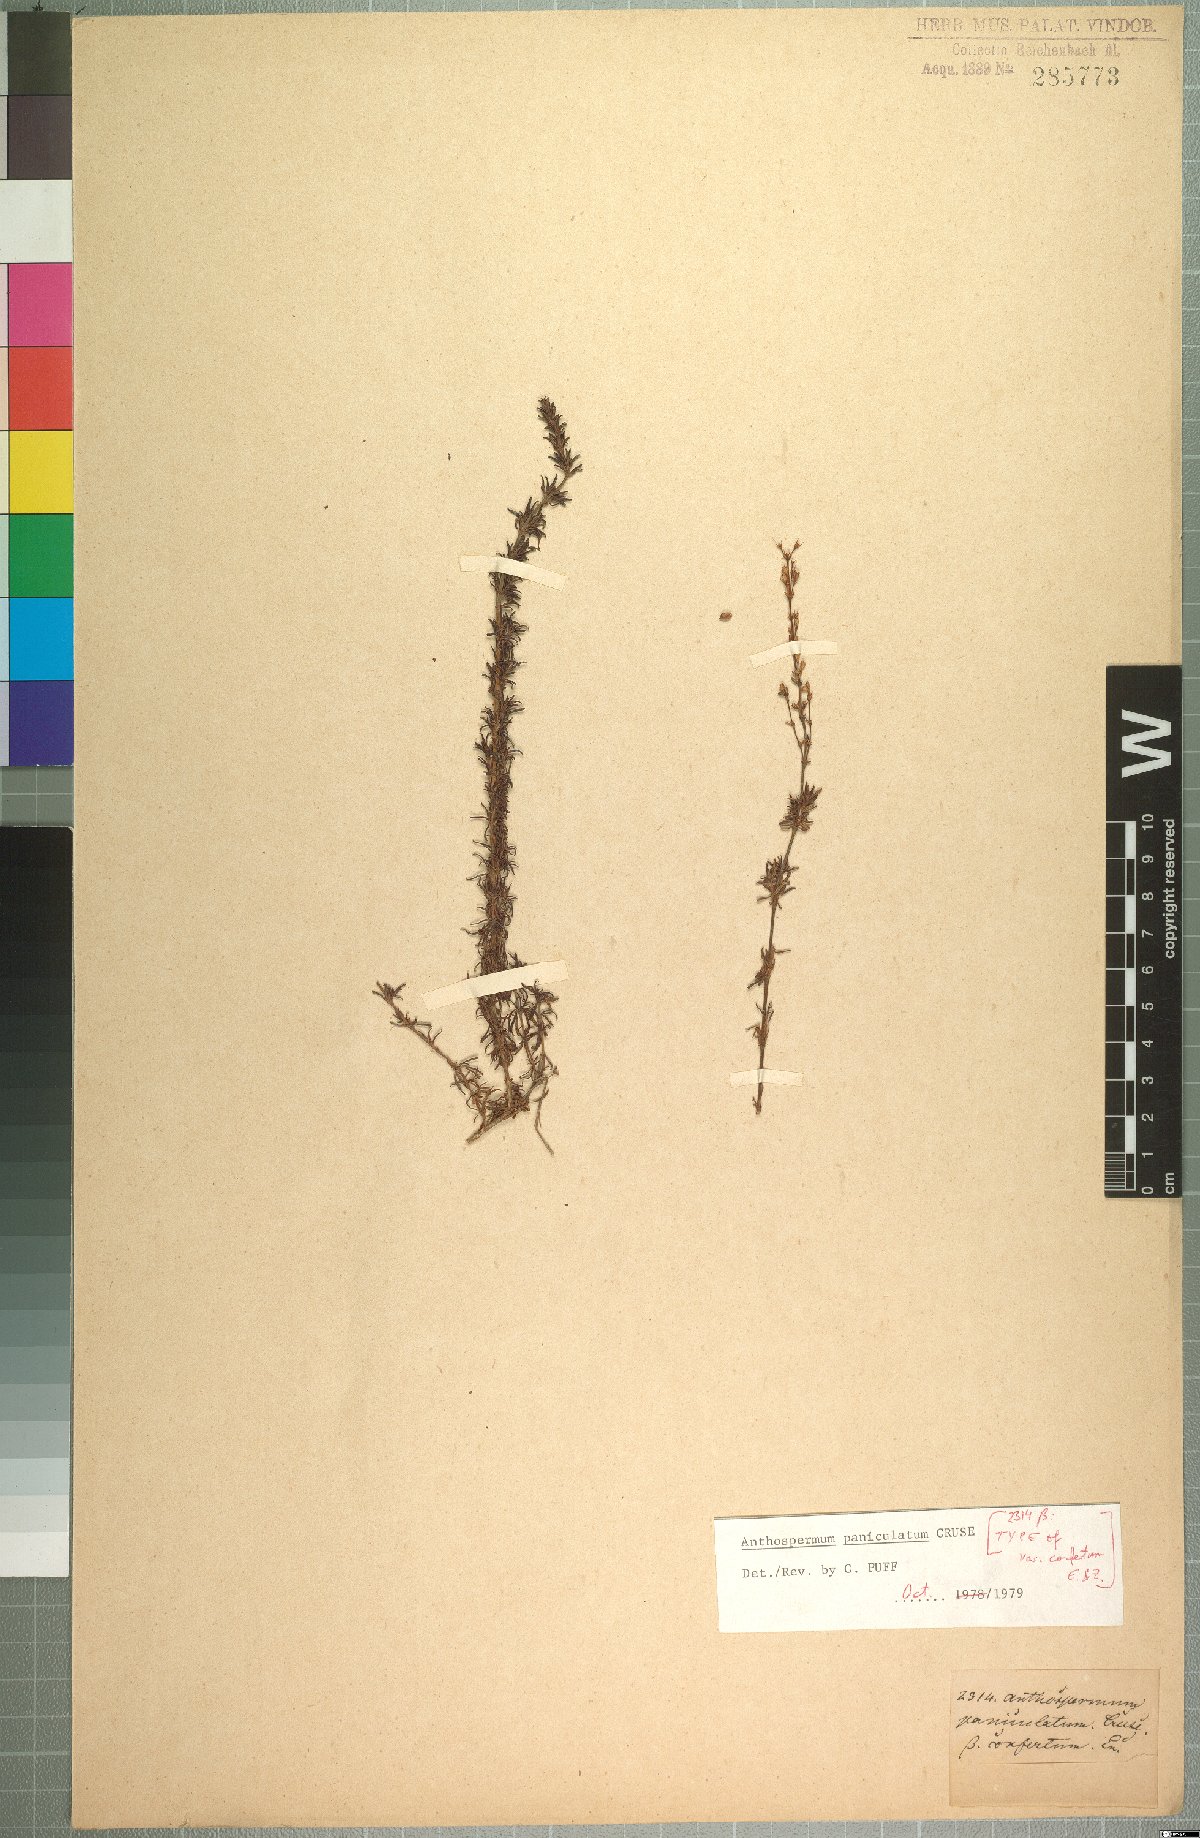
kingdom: Plantae
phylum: Tracheophyta
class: Magnoliopsida
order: Gentianales
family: Rubiaceae
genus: Anthospermum
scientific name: Anthospermum paniculatum
